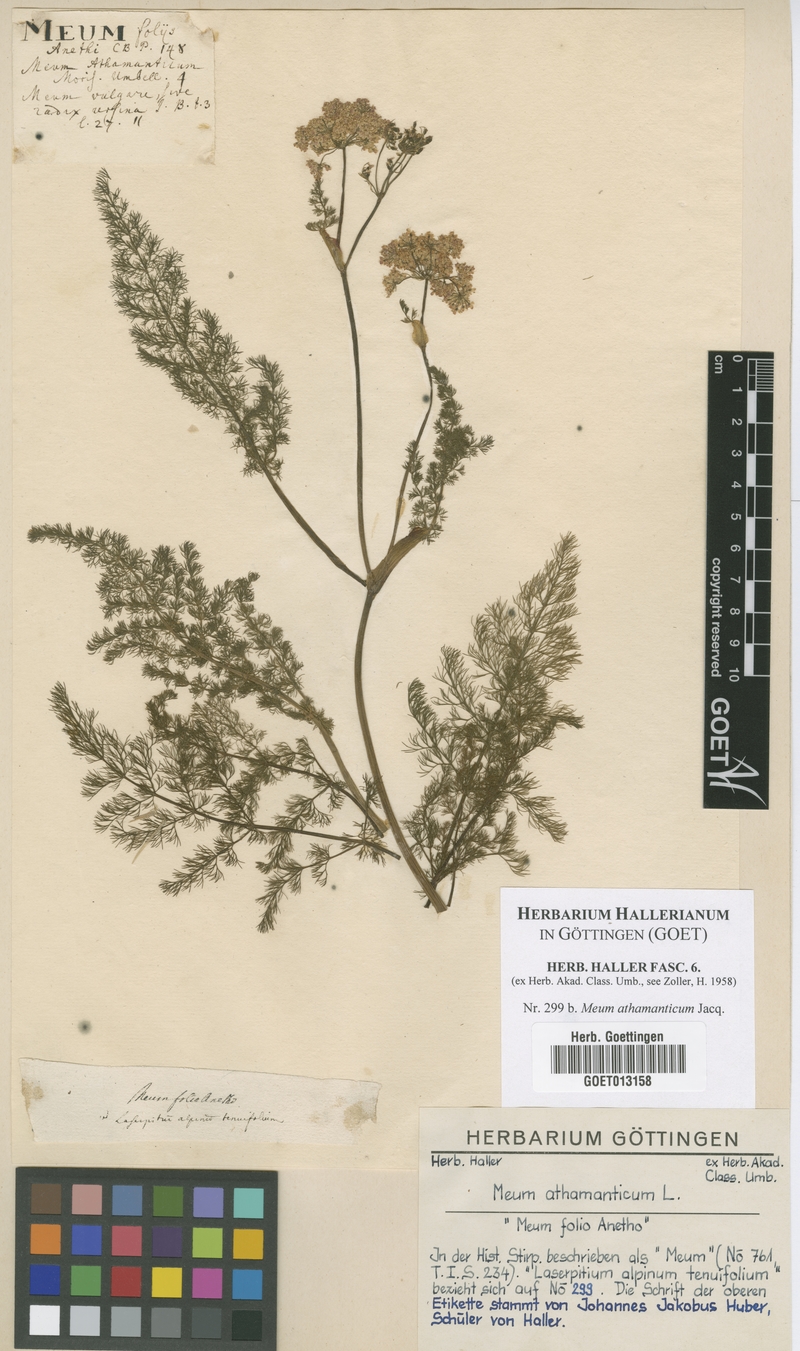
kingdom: Plantae
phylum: Tracheophyta
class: Magnoliopsida
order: Apiales
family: Apiaceae
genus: Meum
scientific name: Meum athamanticum
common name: Spignel
